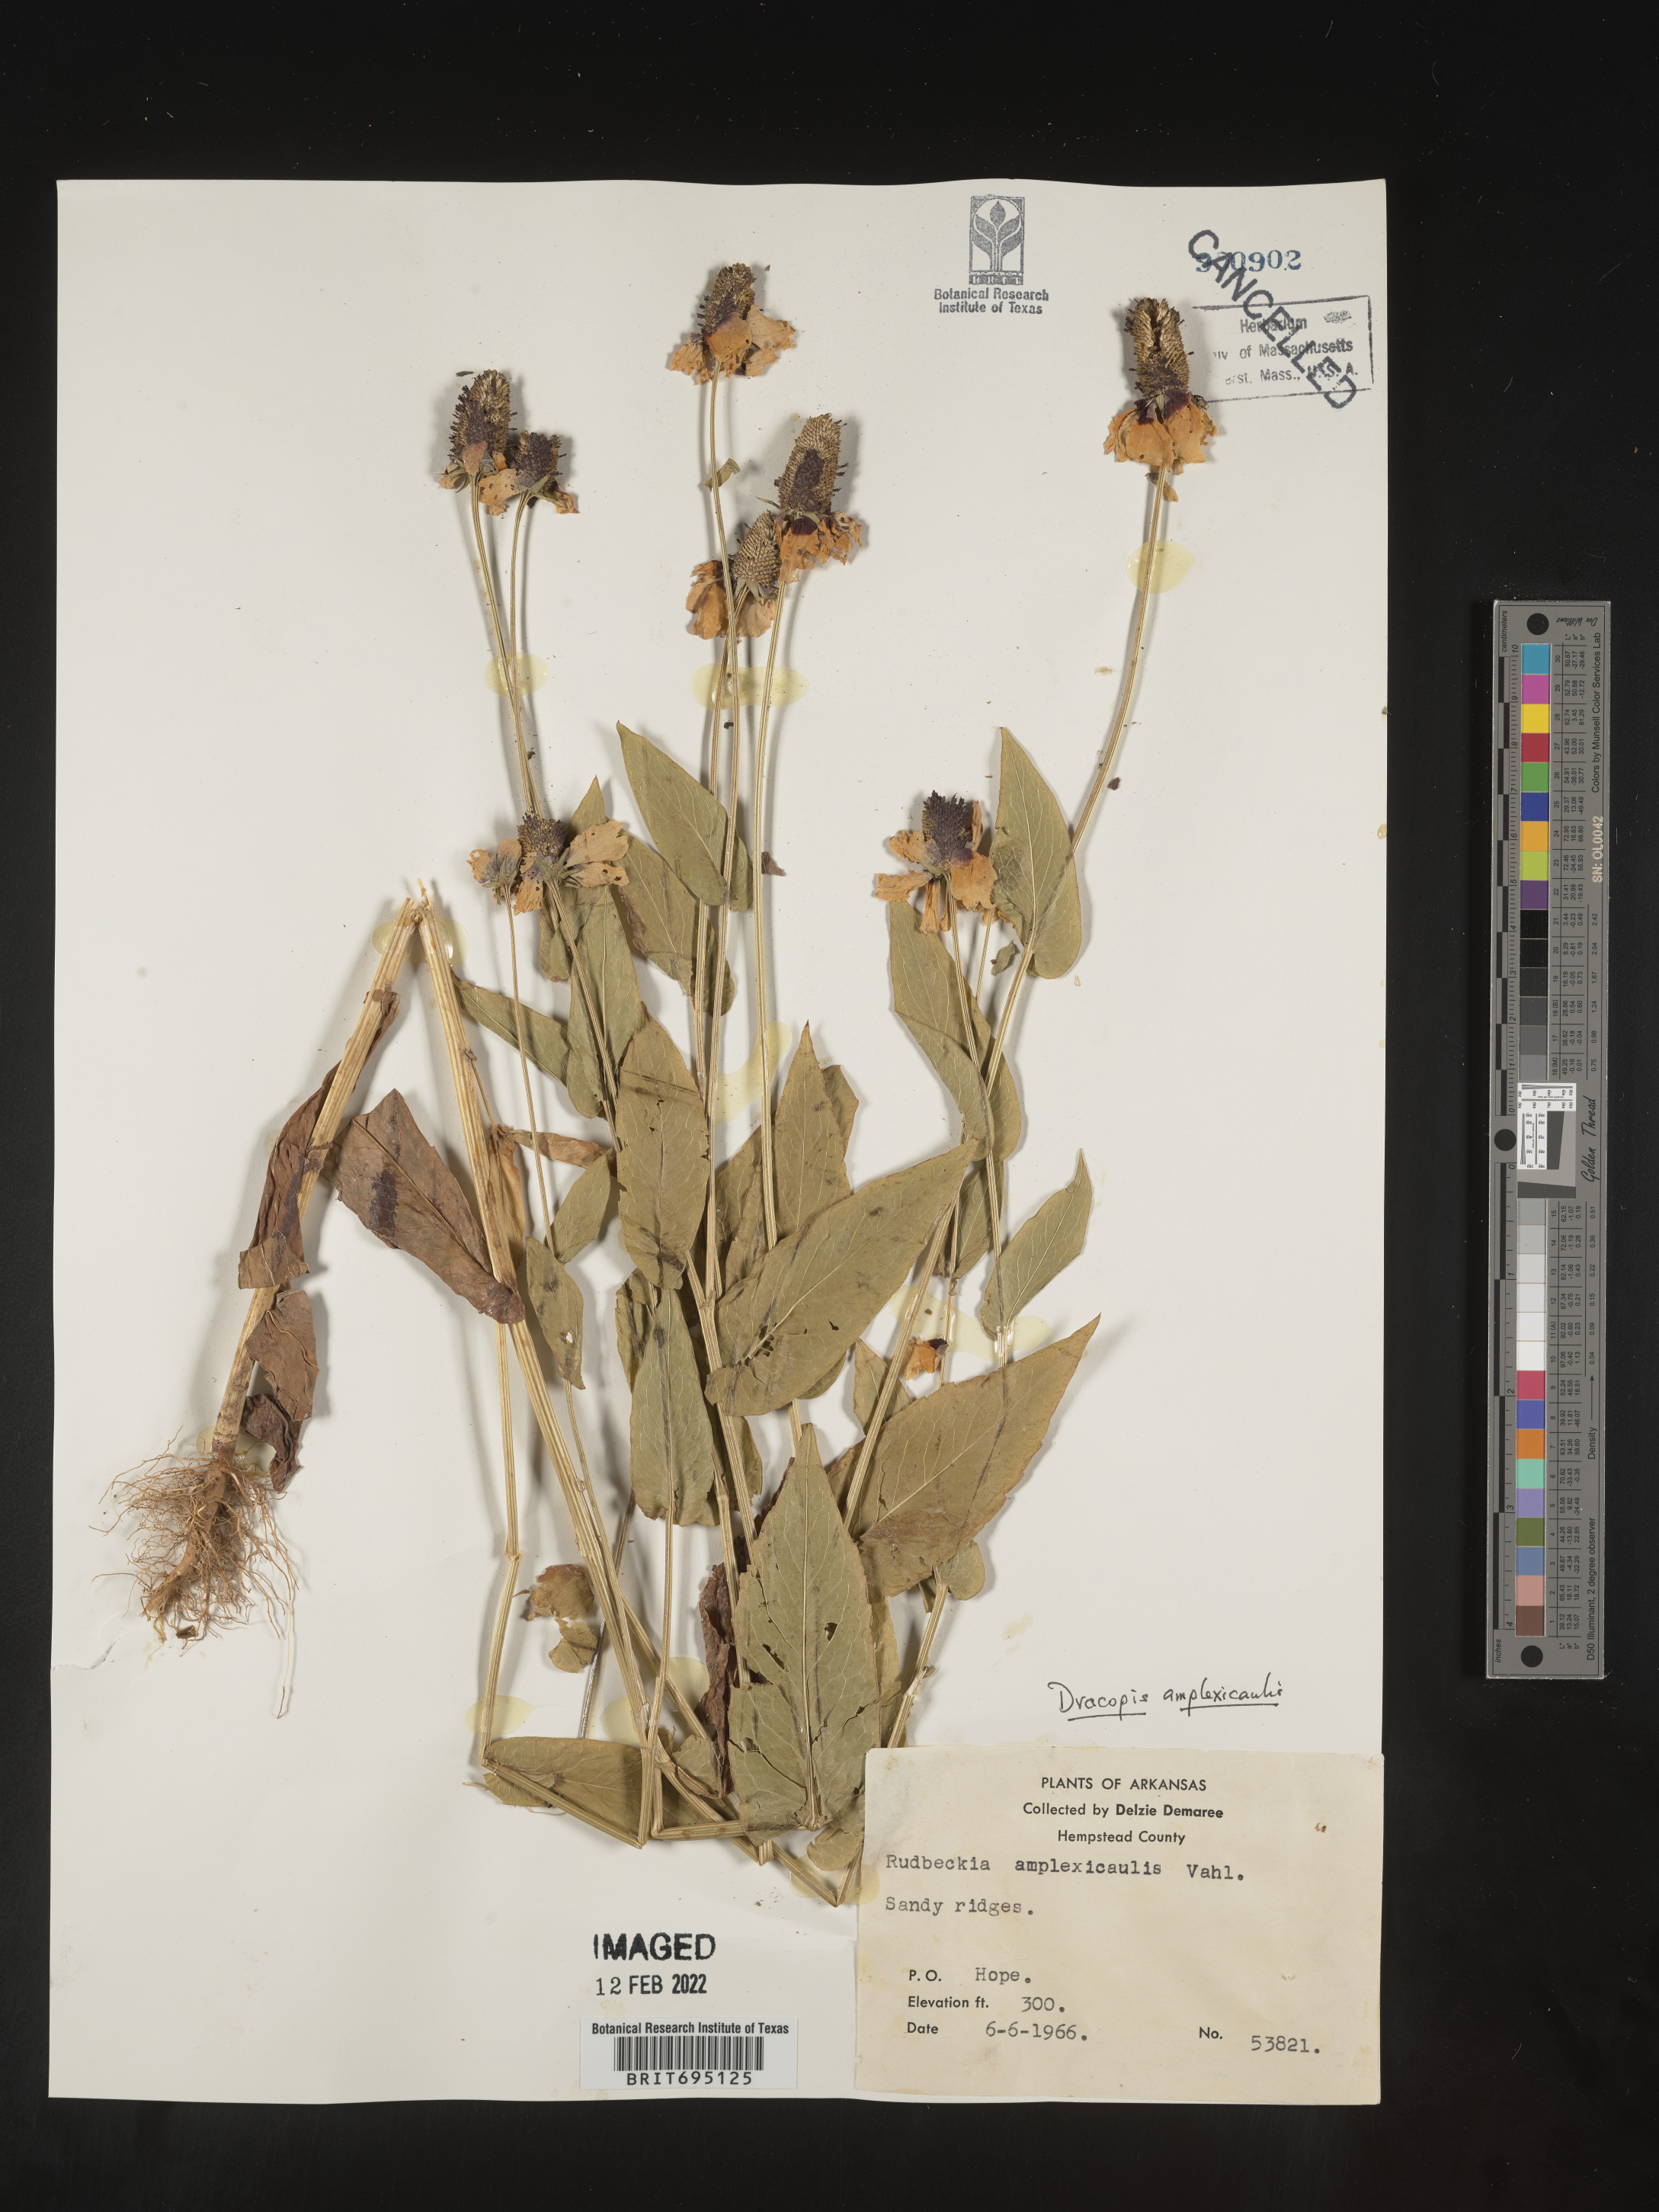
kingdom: Plantae
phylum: Tracheophyta
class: Magnoliopsida
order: Asterales
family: Asteraceae
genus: Rudbeckia
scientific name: Rudbeckia amplexicaulis
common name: Clasping-leaf coneflower
